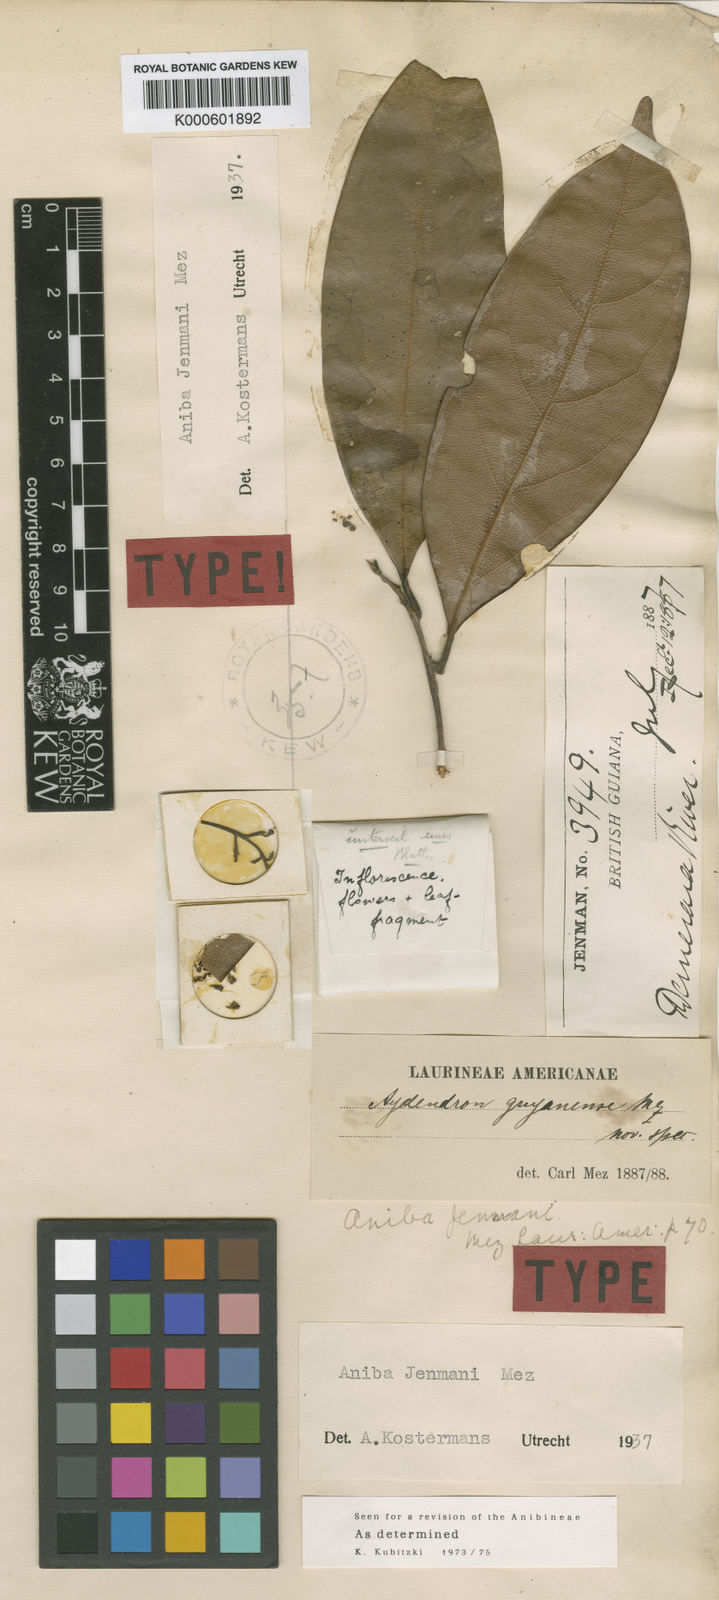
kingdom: Plantae
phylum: Tracheophyta
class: Magnoliopsida
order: Laurales
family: Lauraceae
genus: Aniba
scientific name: Aniba jenmanii
